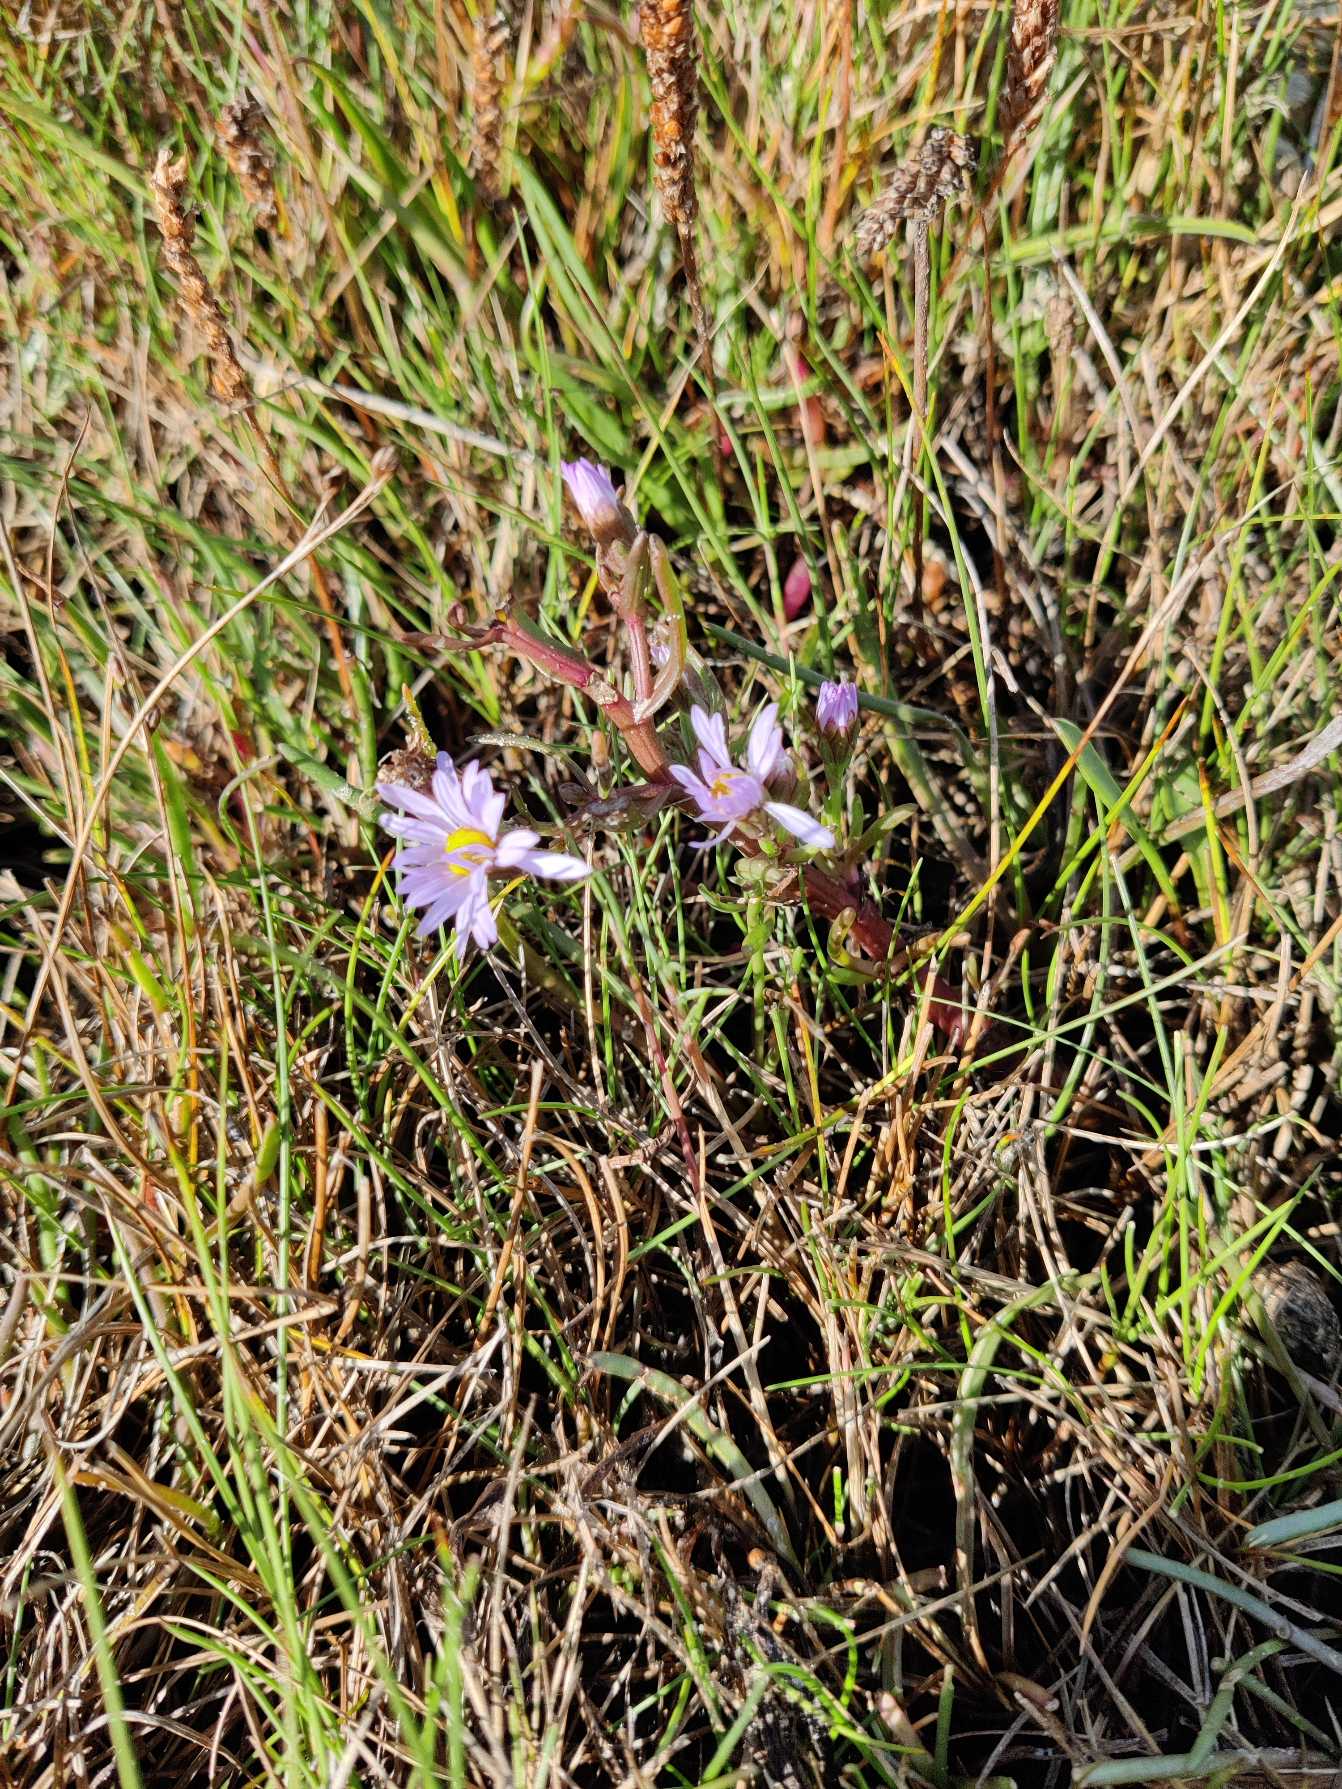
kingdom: Plantae
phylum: Tracheophyta
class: Magnoliopsida
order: Asterales
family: Asteraceae
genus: Tripolium
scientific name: Tripolium pannonicum
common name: Strandasters
